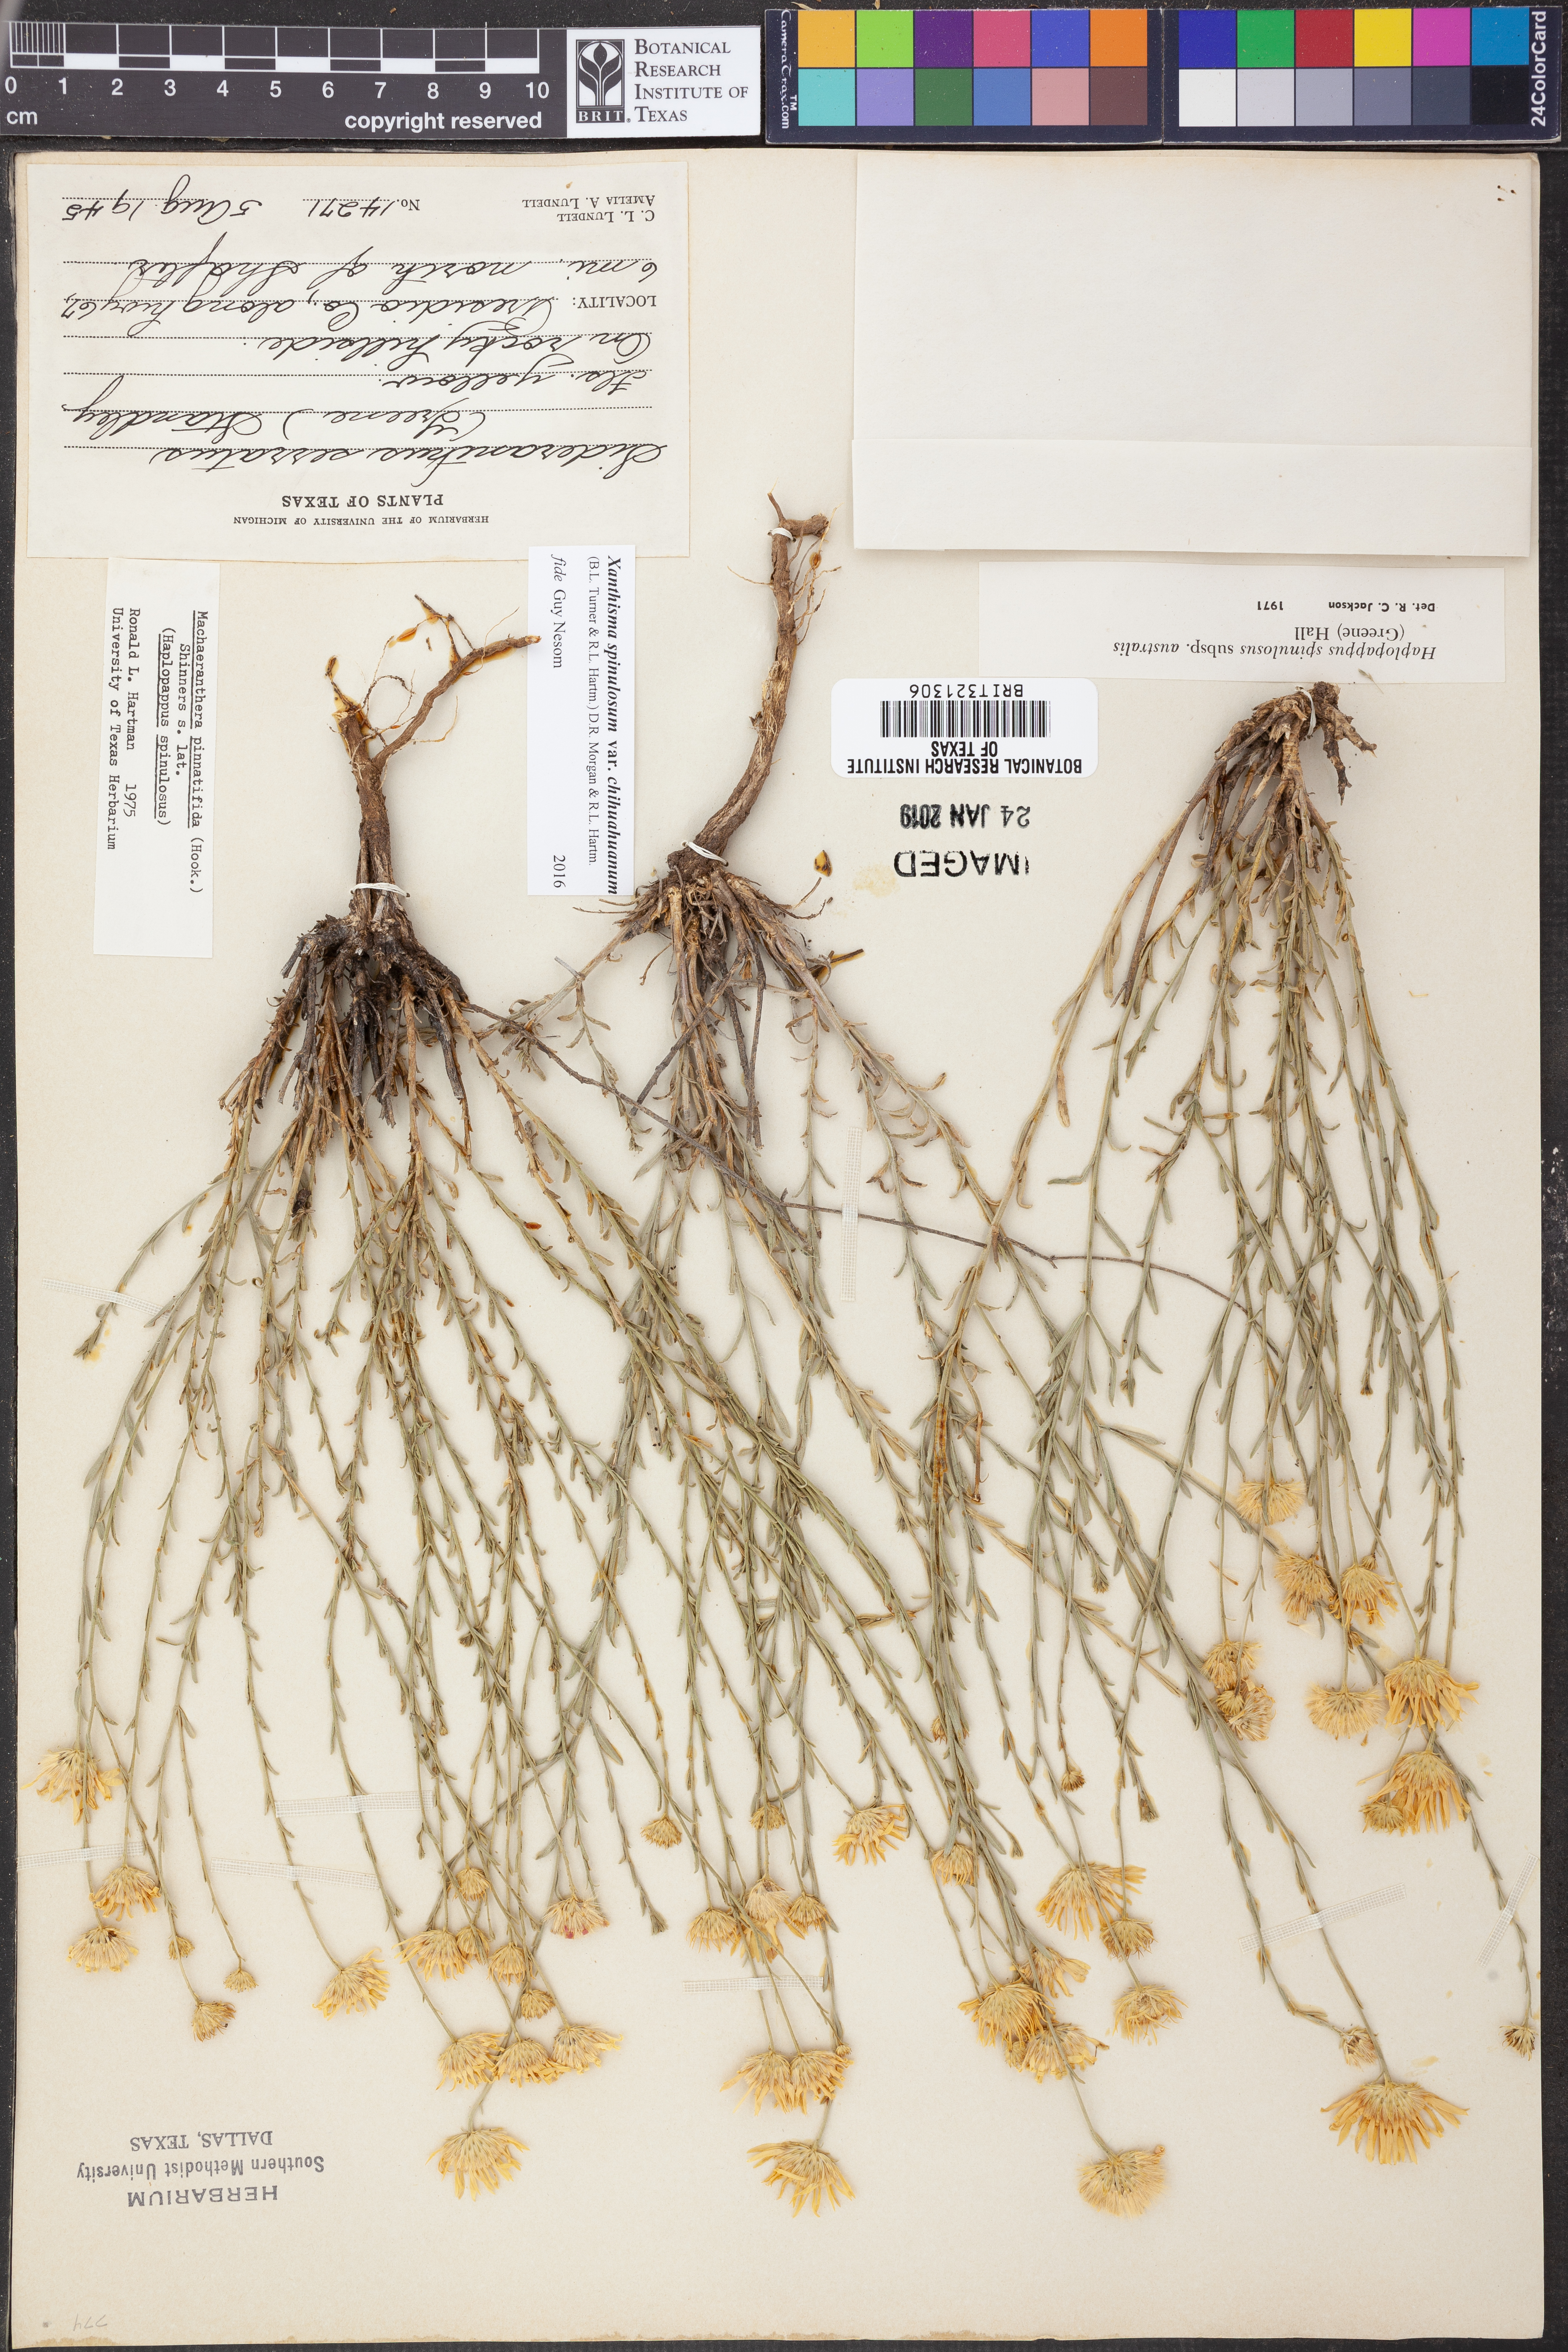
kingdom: Plantae
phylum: Tracheophyta
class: Magnoliopsida
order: Asterales
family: Asteraceae
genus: Xanthisma
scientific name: Xanthisma spinulosum
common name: Spiny goldenweed
